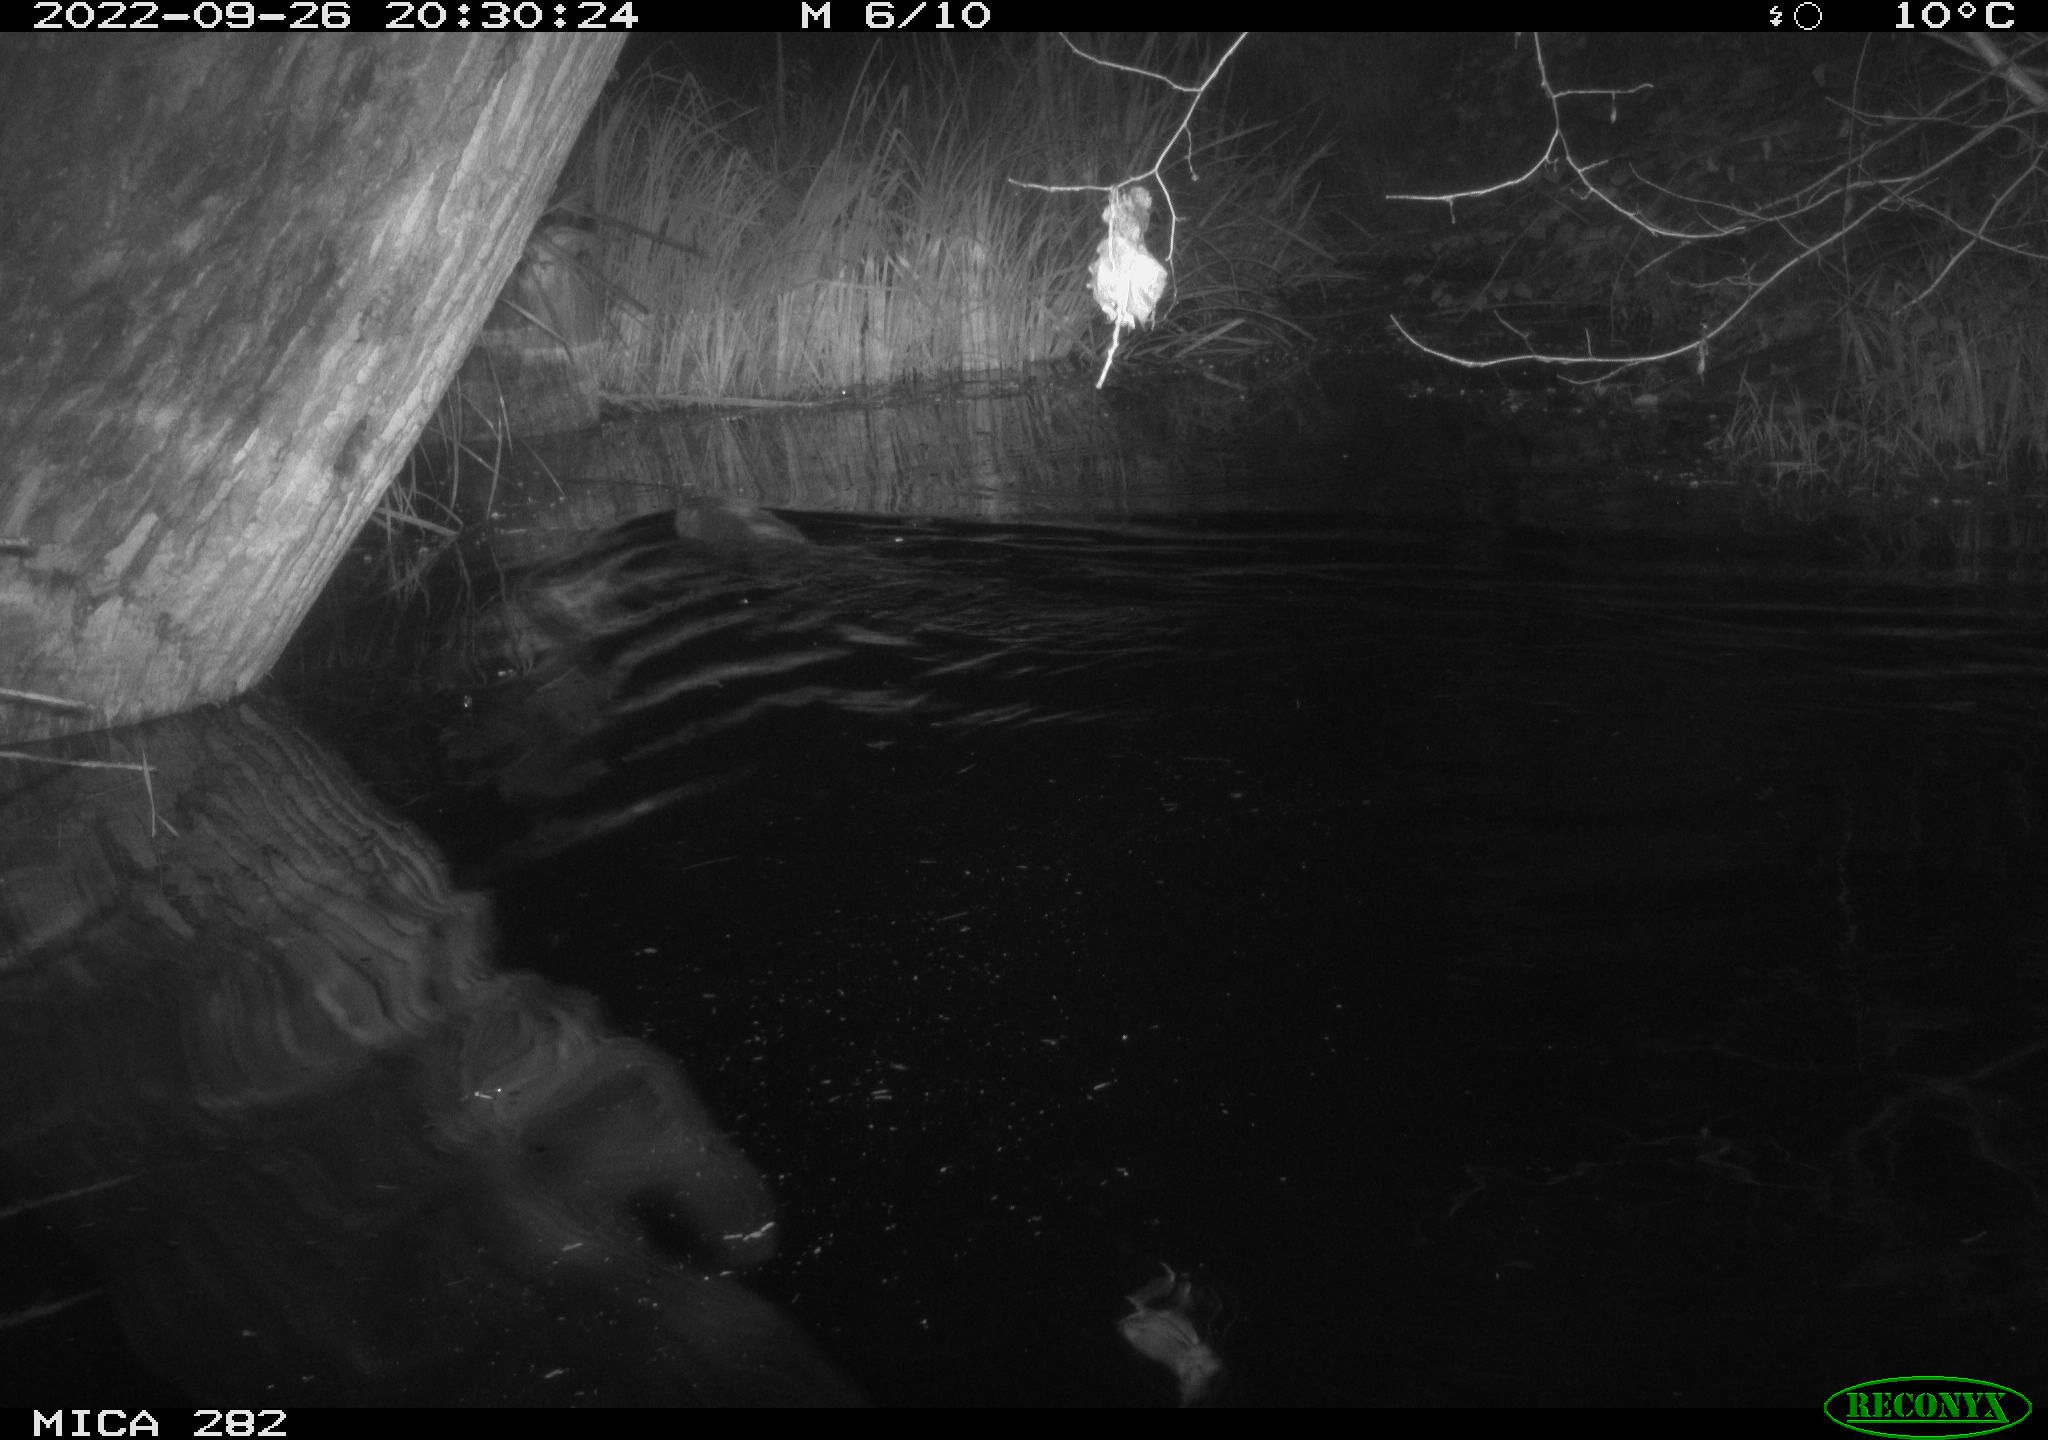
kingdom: Animalia
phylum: Chordata
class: Aves
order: Gruiformes
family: Rallidae
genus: Fulica
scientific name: Fulica atra
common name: Eurasian coot
